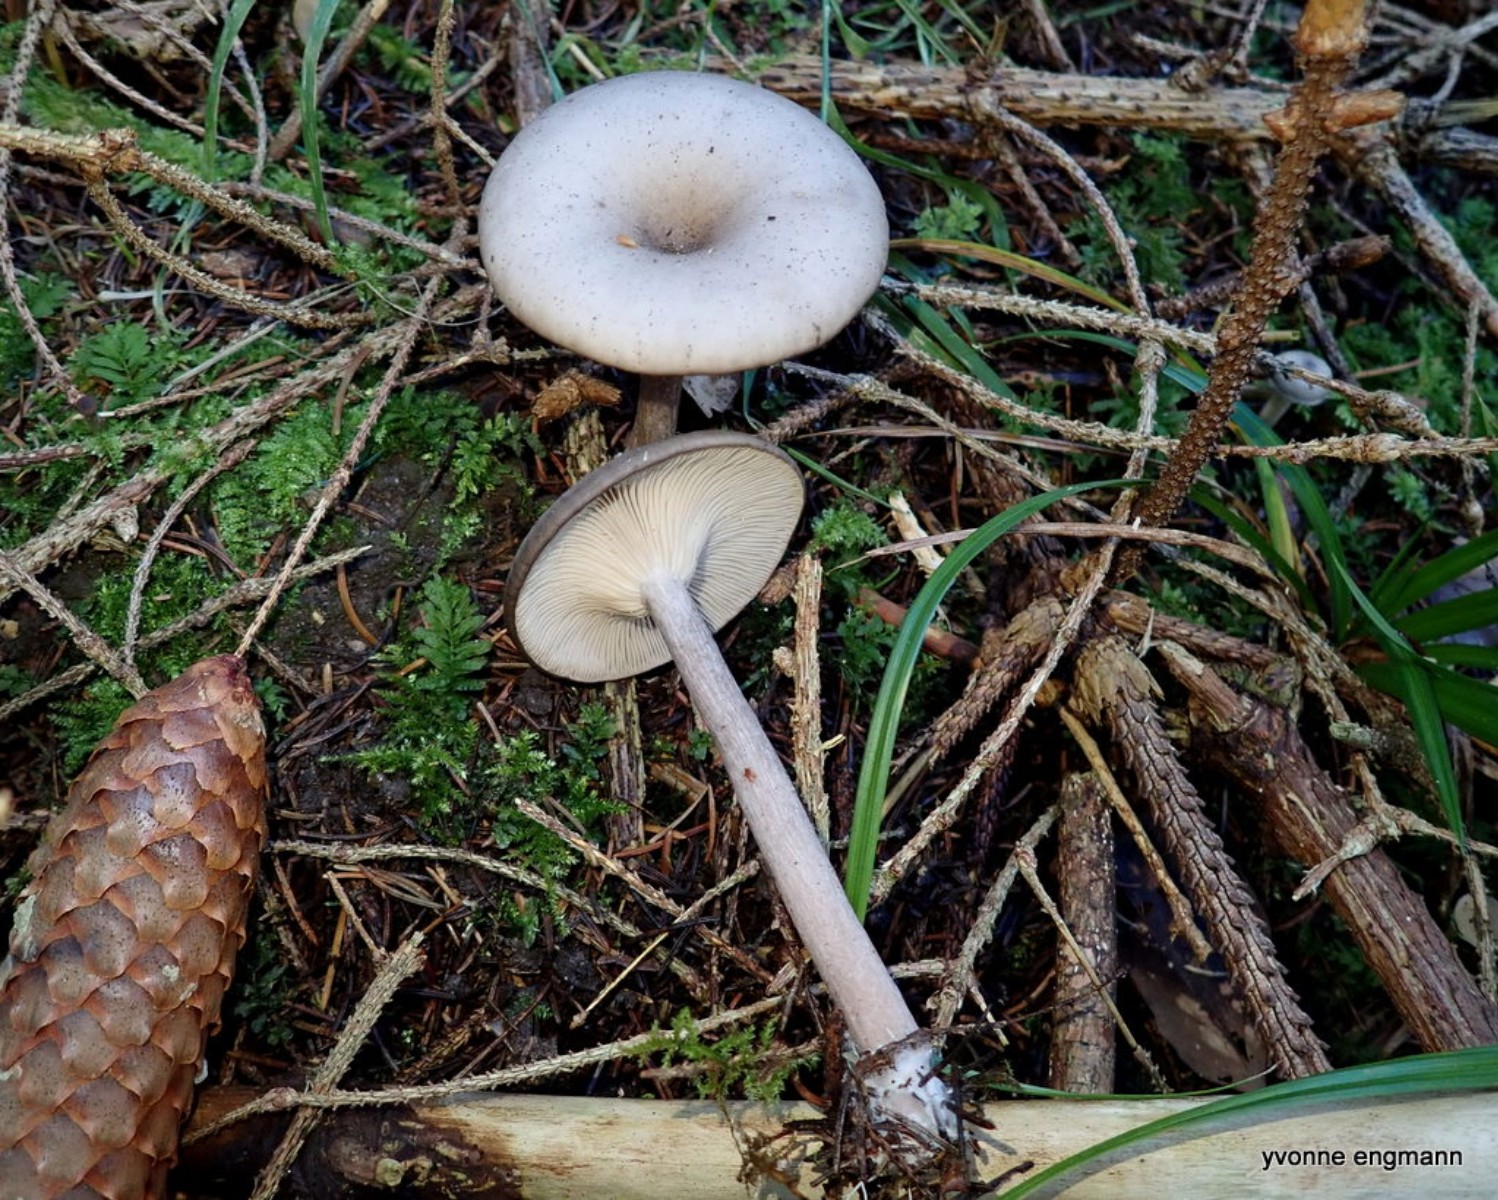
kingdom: Fungi
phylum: Basidiomycota
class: Agaricomycetes
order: Agaricales
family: Pseudoclitocybaceae
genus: Pseudoclitocybe
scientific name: Pseudoclitocybe cyathiformis
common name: almindelig bægertragthat
